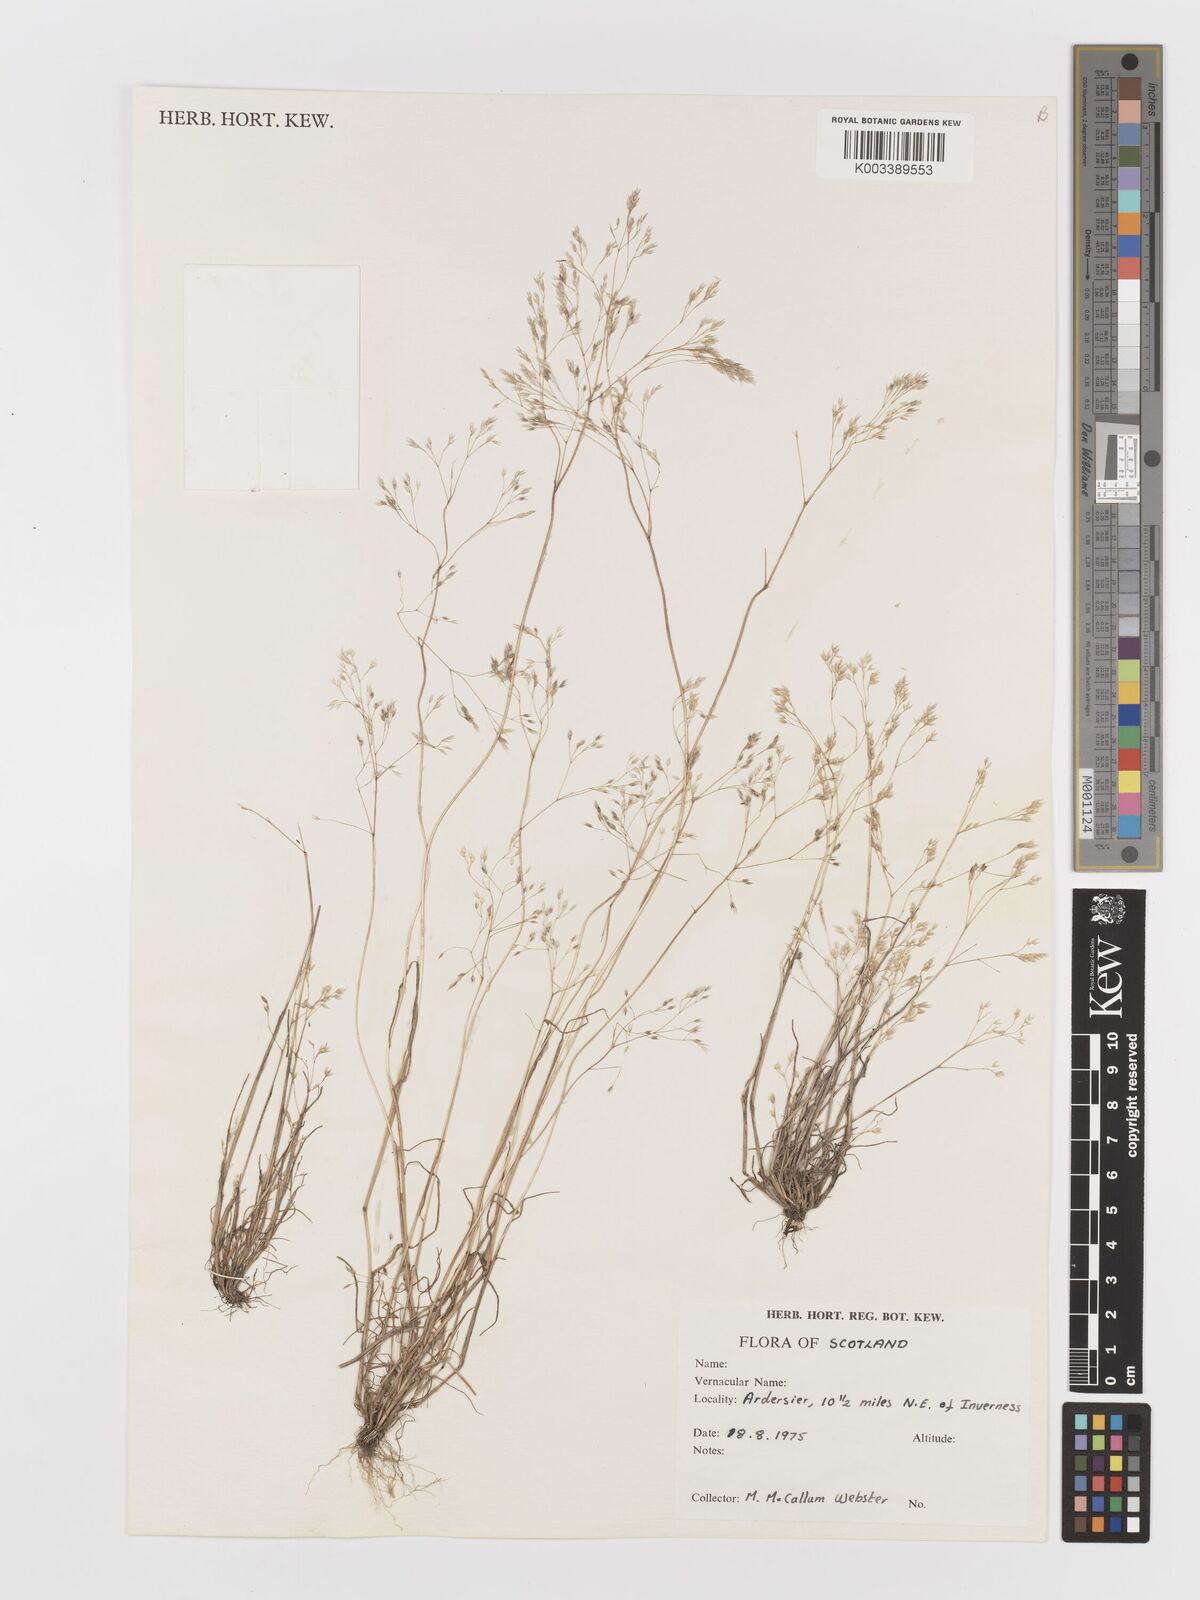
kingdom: Plantae
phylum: Tracheophyta
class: Liliopsida
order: Poales
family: Poaceae
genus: Aira
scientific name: Aira caryophyllea
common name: Silver hairgrass
